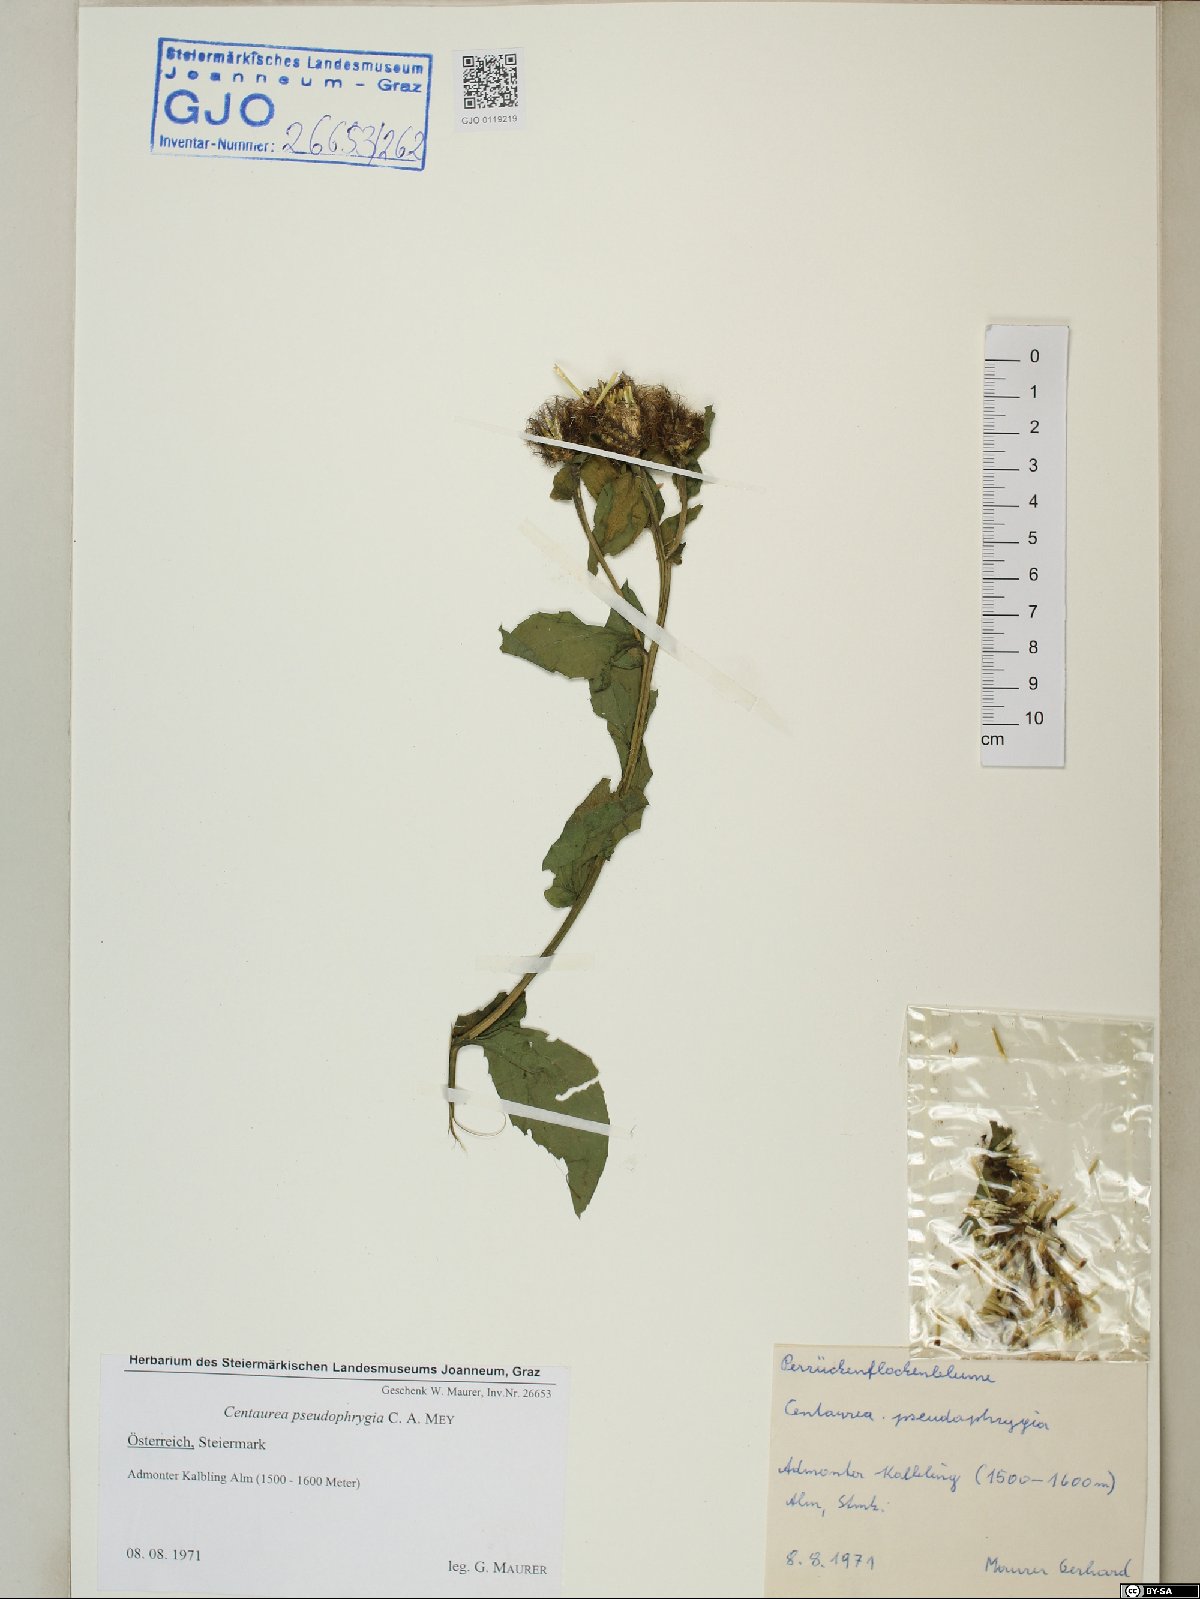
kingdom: Plantae
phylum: Tracheophyta
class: Magnoliopsida
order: Asterales
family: Asteraceae
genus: Centaurea
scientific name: Centaurea pseudophrygia
